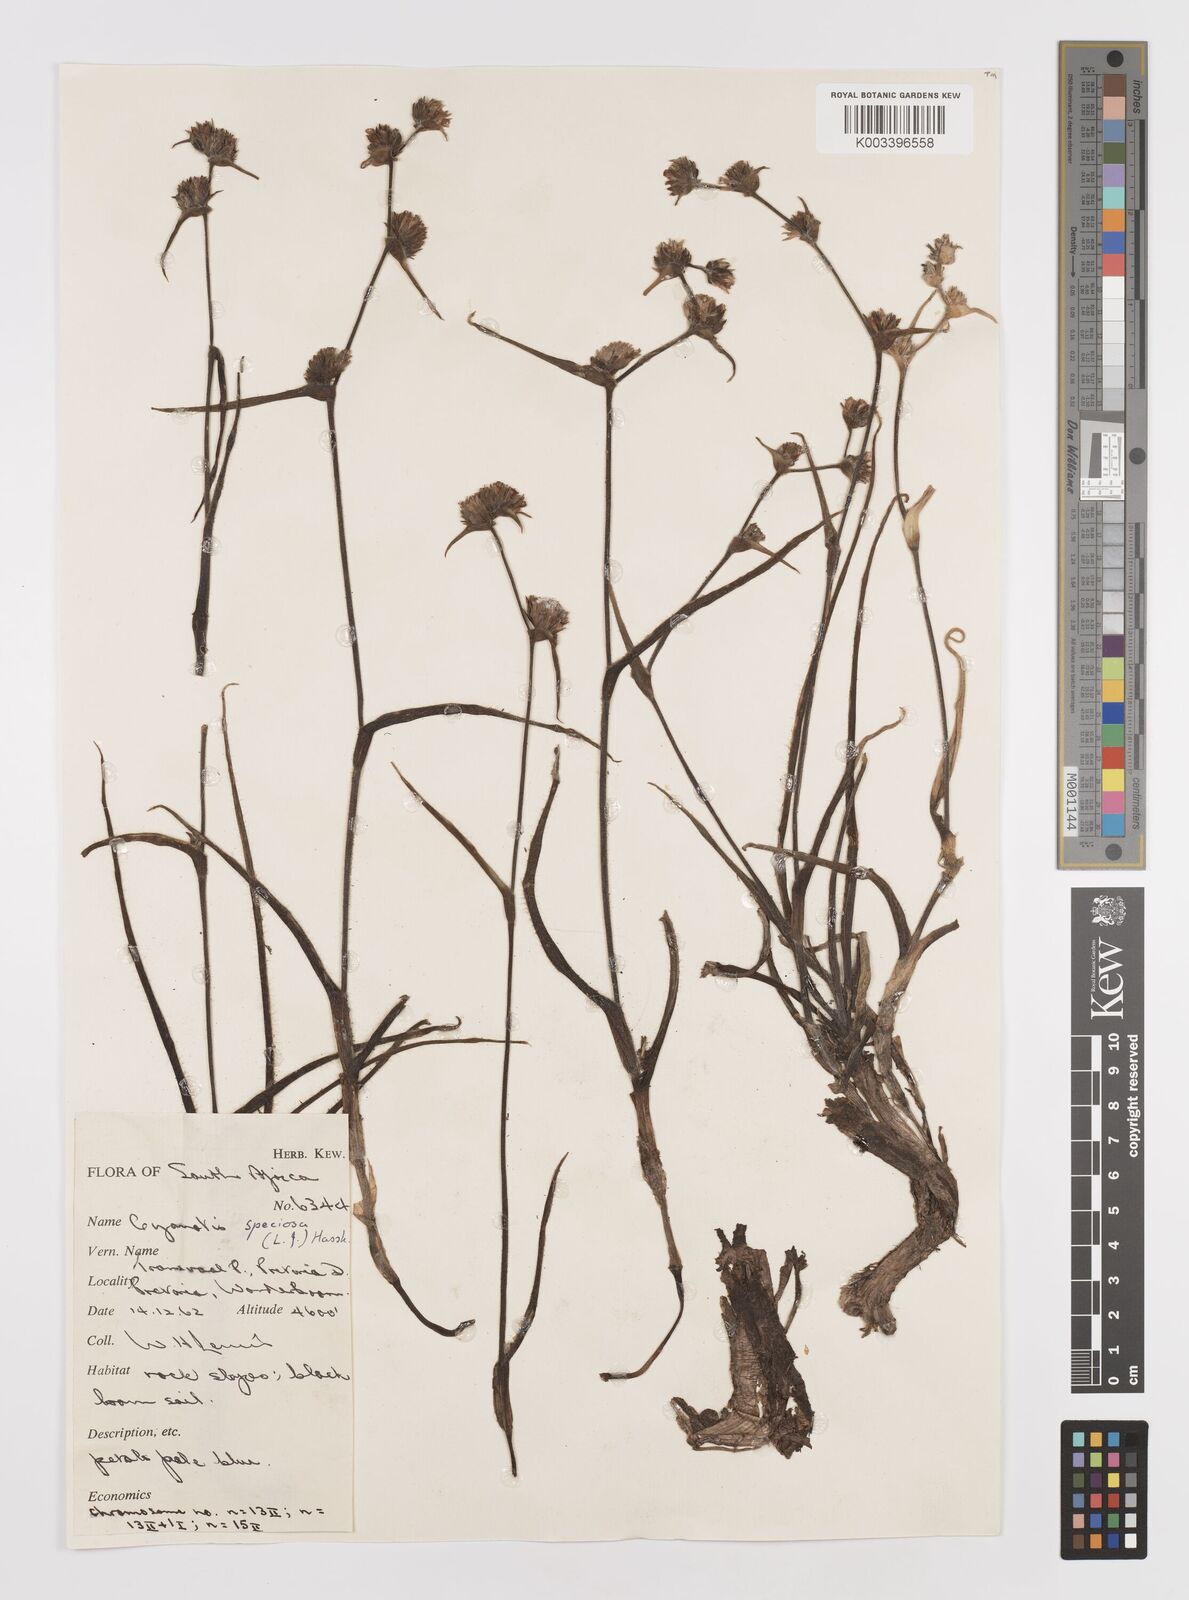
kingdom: Plantae
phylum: Tracheophyta
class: Liliopsida
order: Commelinales
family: Commelinaceae
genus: Cyanotis
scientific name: Cyanotis speciosa
